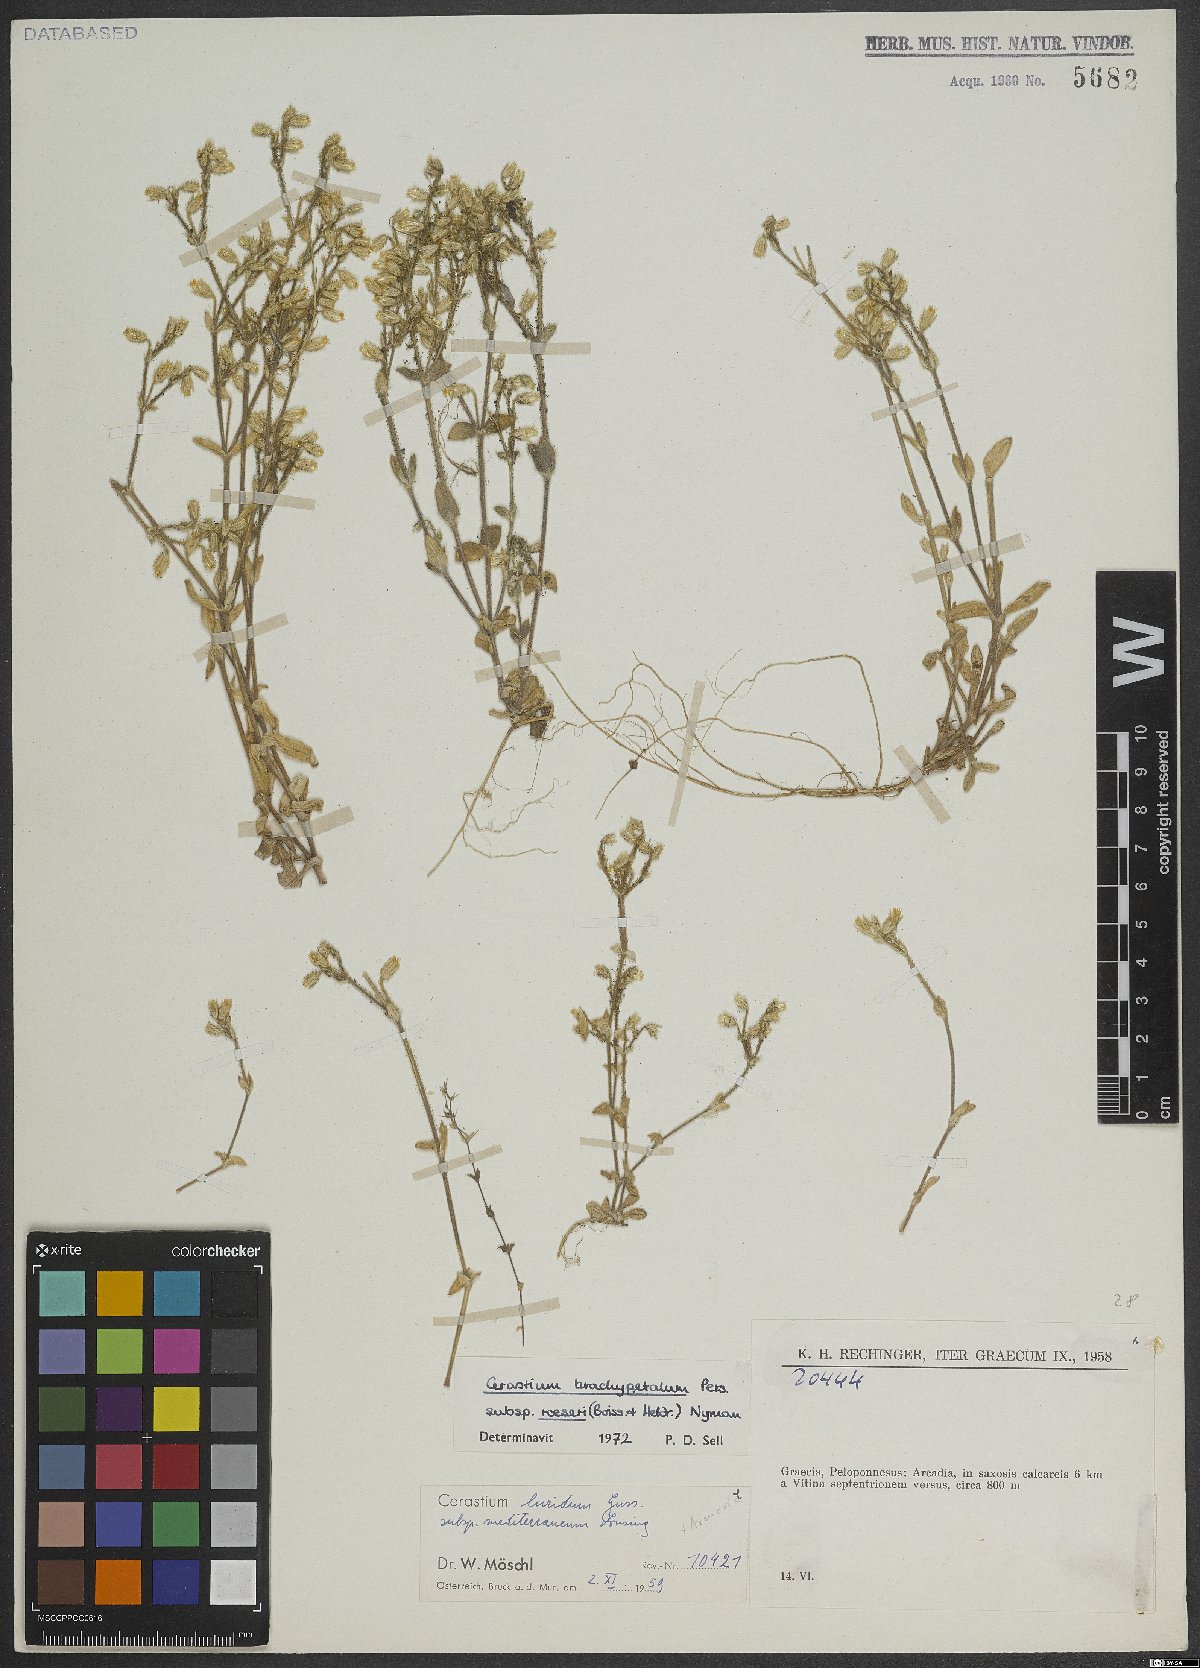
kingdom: Plantae
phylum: Tracheophyta
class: Magnoliopsida
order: Caryophyllales
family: Caryophyllaceae
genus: Cerastium
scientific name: Cerastium brachypetalum
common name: Grey mouse-ear
